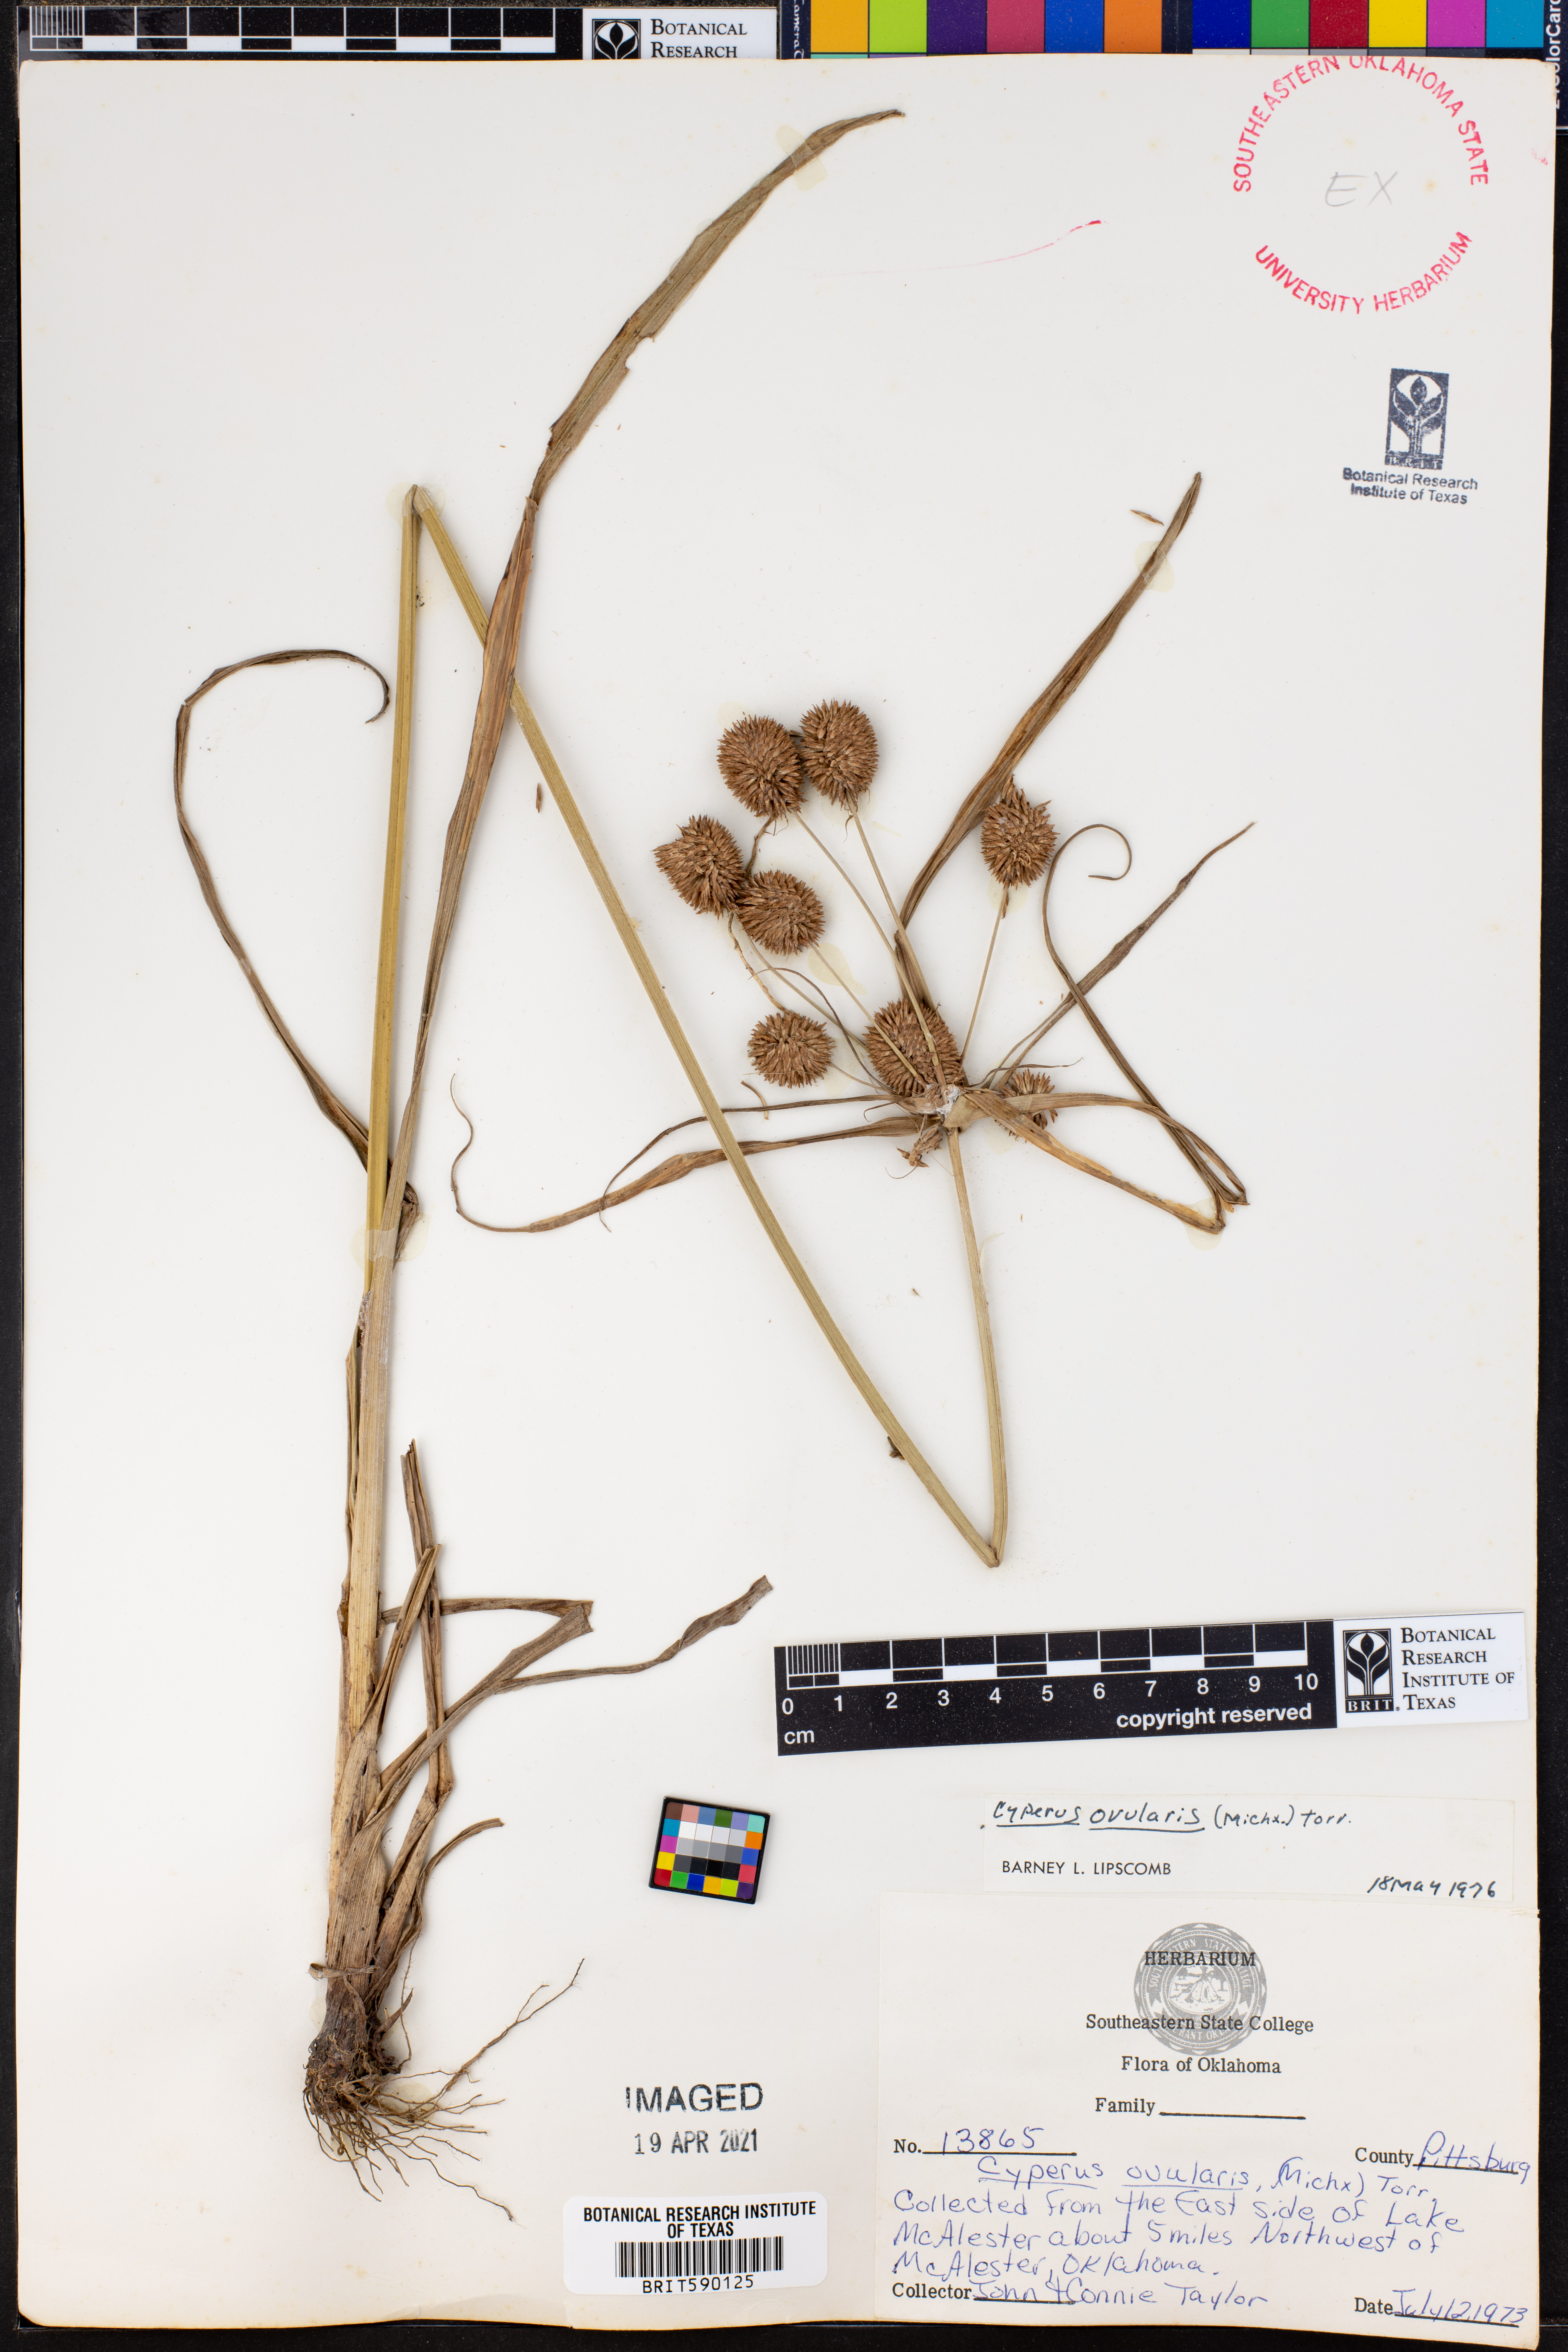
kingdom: Plantae
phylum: Tracheophyta
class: Liliopsida
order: Poales
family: Cyperaceae
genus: Cyperus
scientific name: Cyperus echinatus
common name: Teasel sedge
